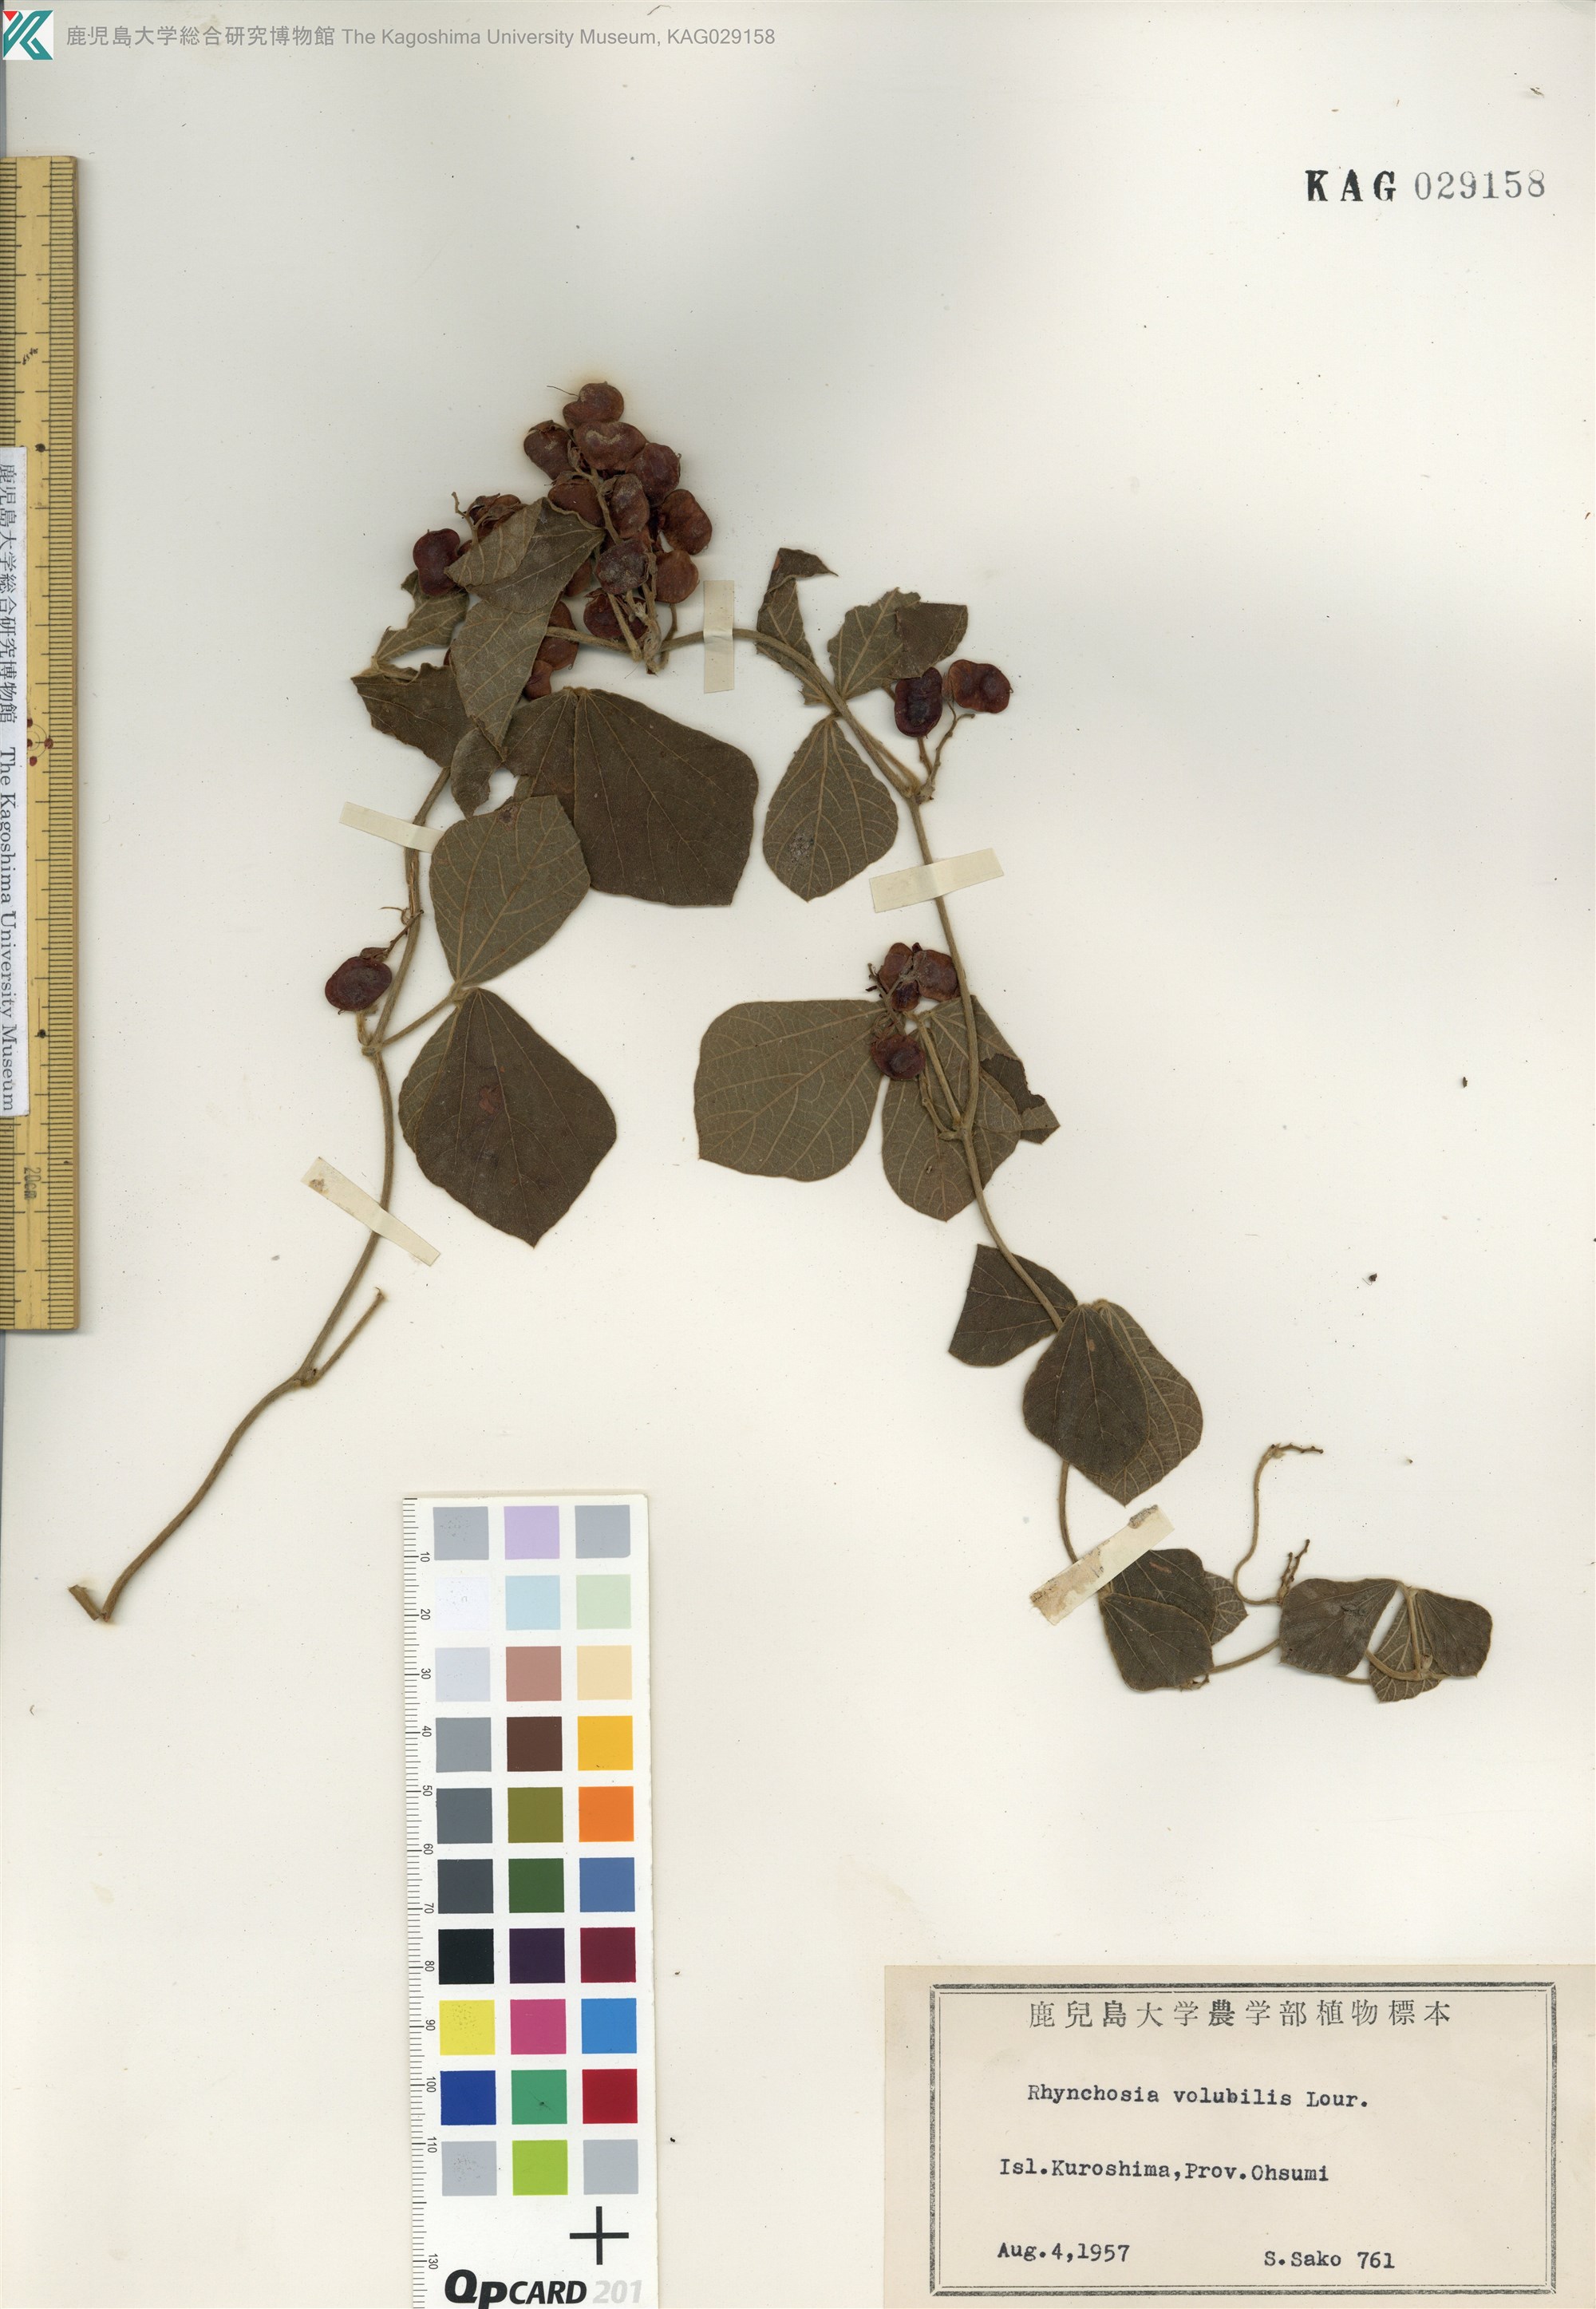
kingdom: Plantae
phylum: Tracheophyta
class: Magnoliopsida
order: Fabales
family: Fabaceae
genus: Rhynchosia
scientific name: Rhynchosia volubilis
